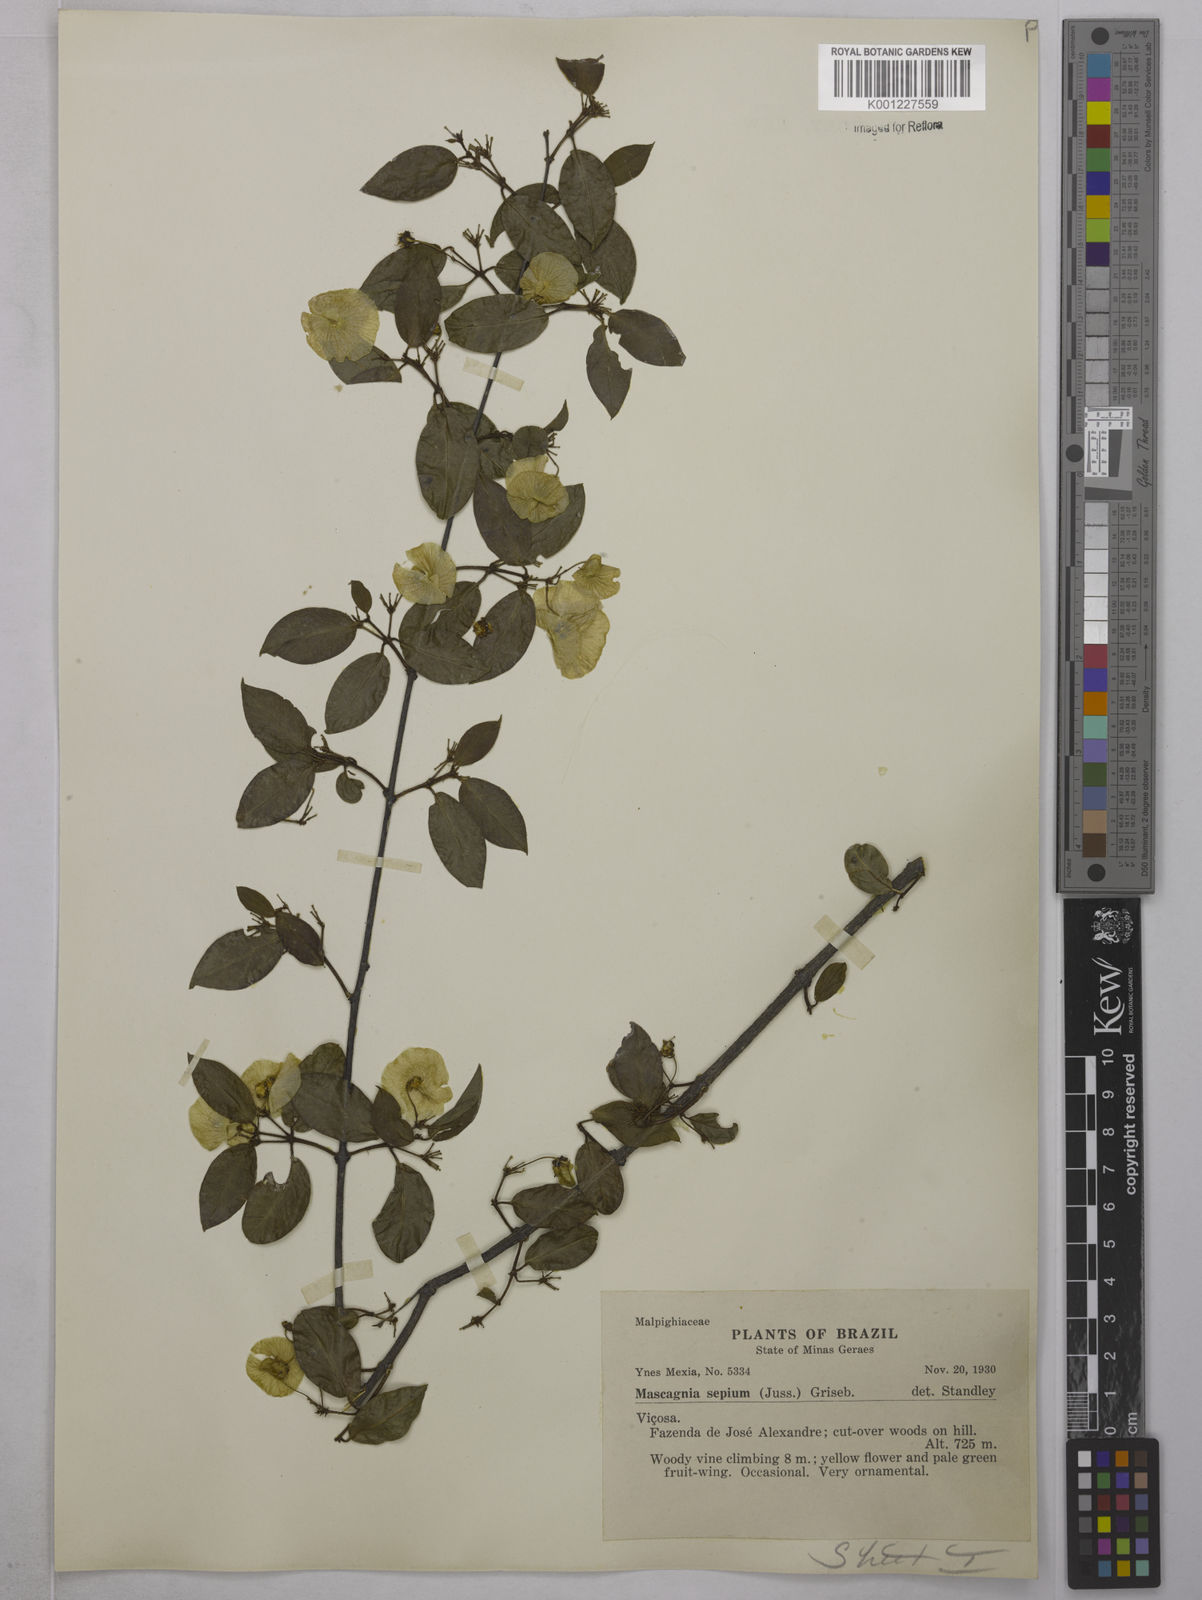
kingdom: Plantae
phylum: Tracheophyta
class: Magnoliopsida
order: Malpighiales
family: Malpighiaceae
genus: Mascagnia
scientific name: Mascagnia sepium
